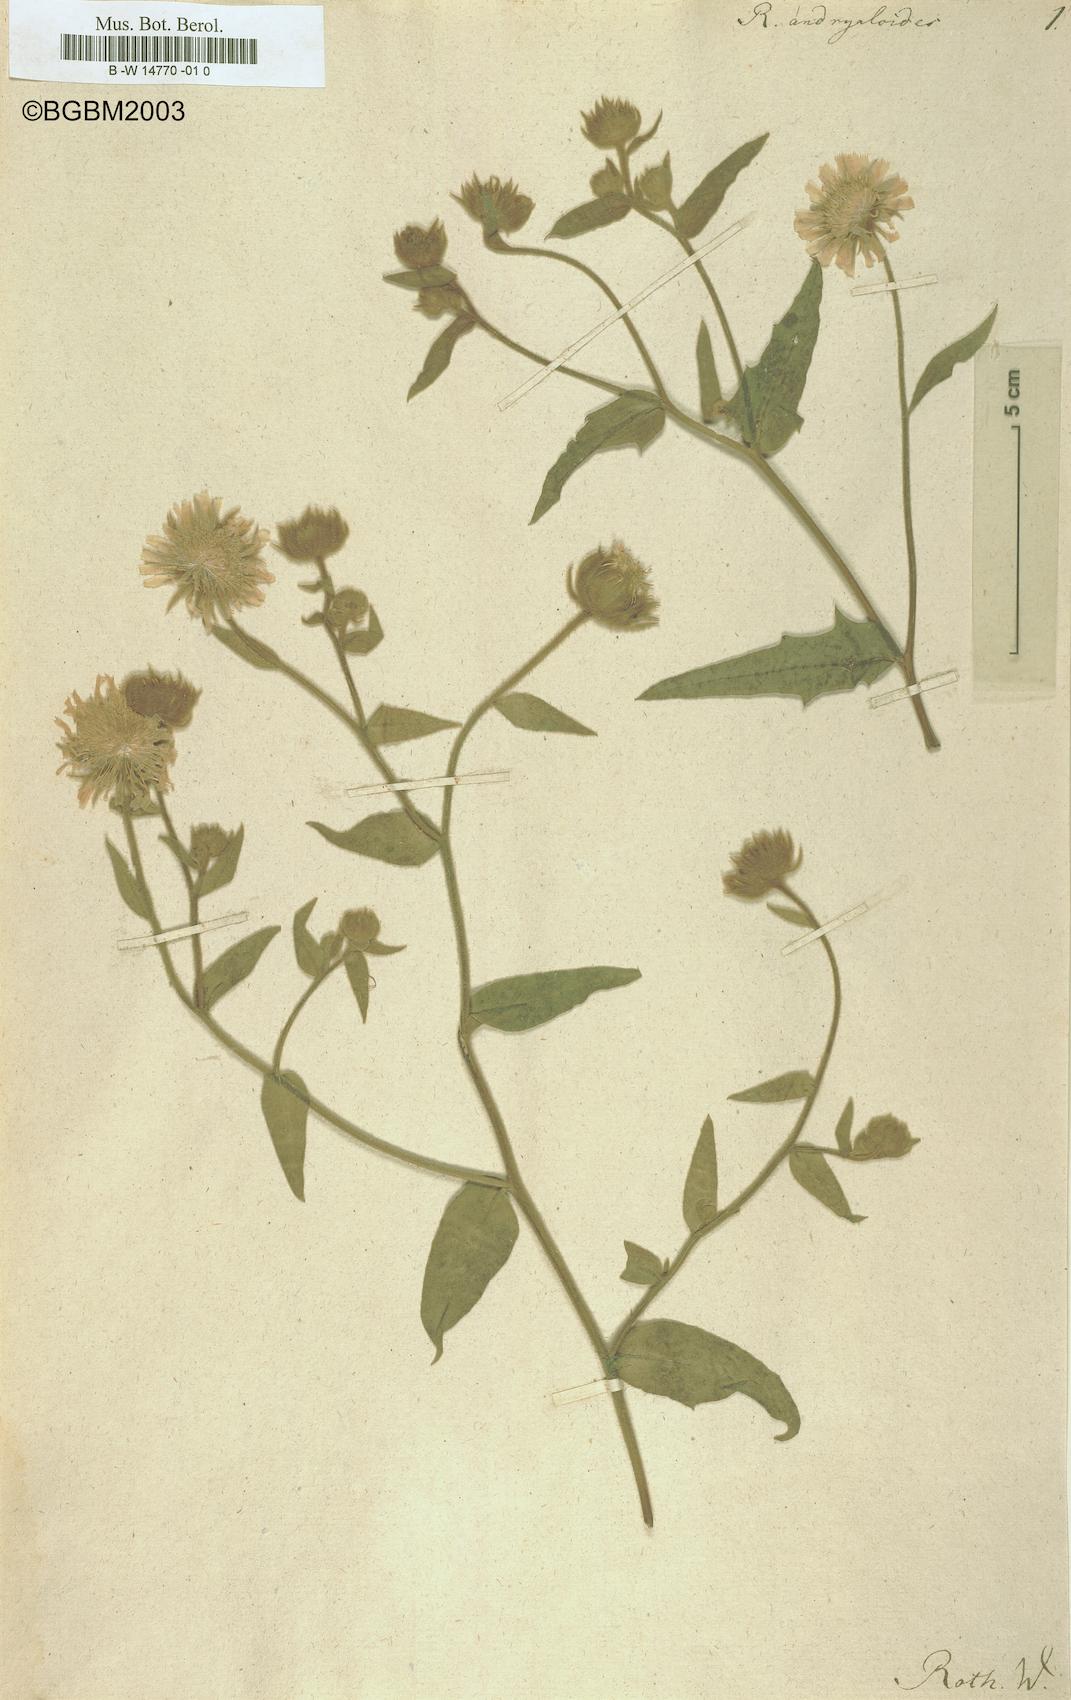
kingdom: Plantae
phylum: Tracheophyta
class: Magnoliopsida
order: Asterales
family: Asteraceae
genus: Andryala
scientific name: Andryala rothia
